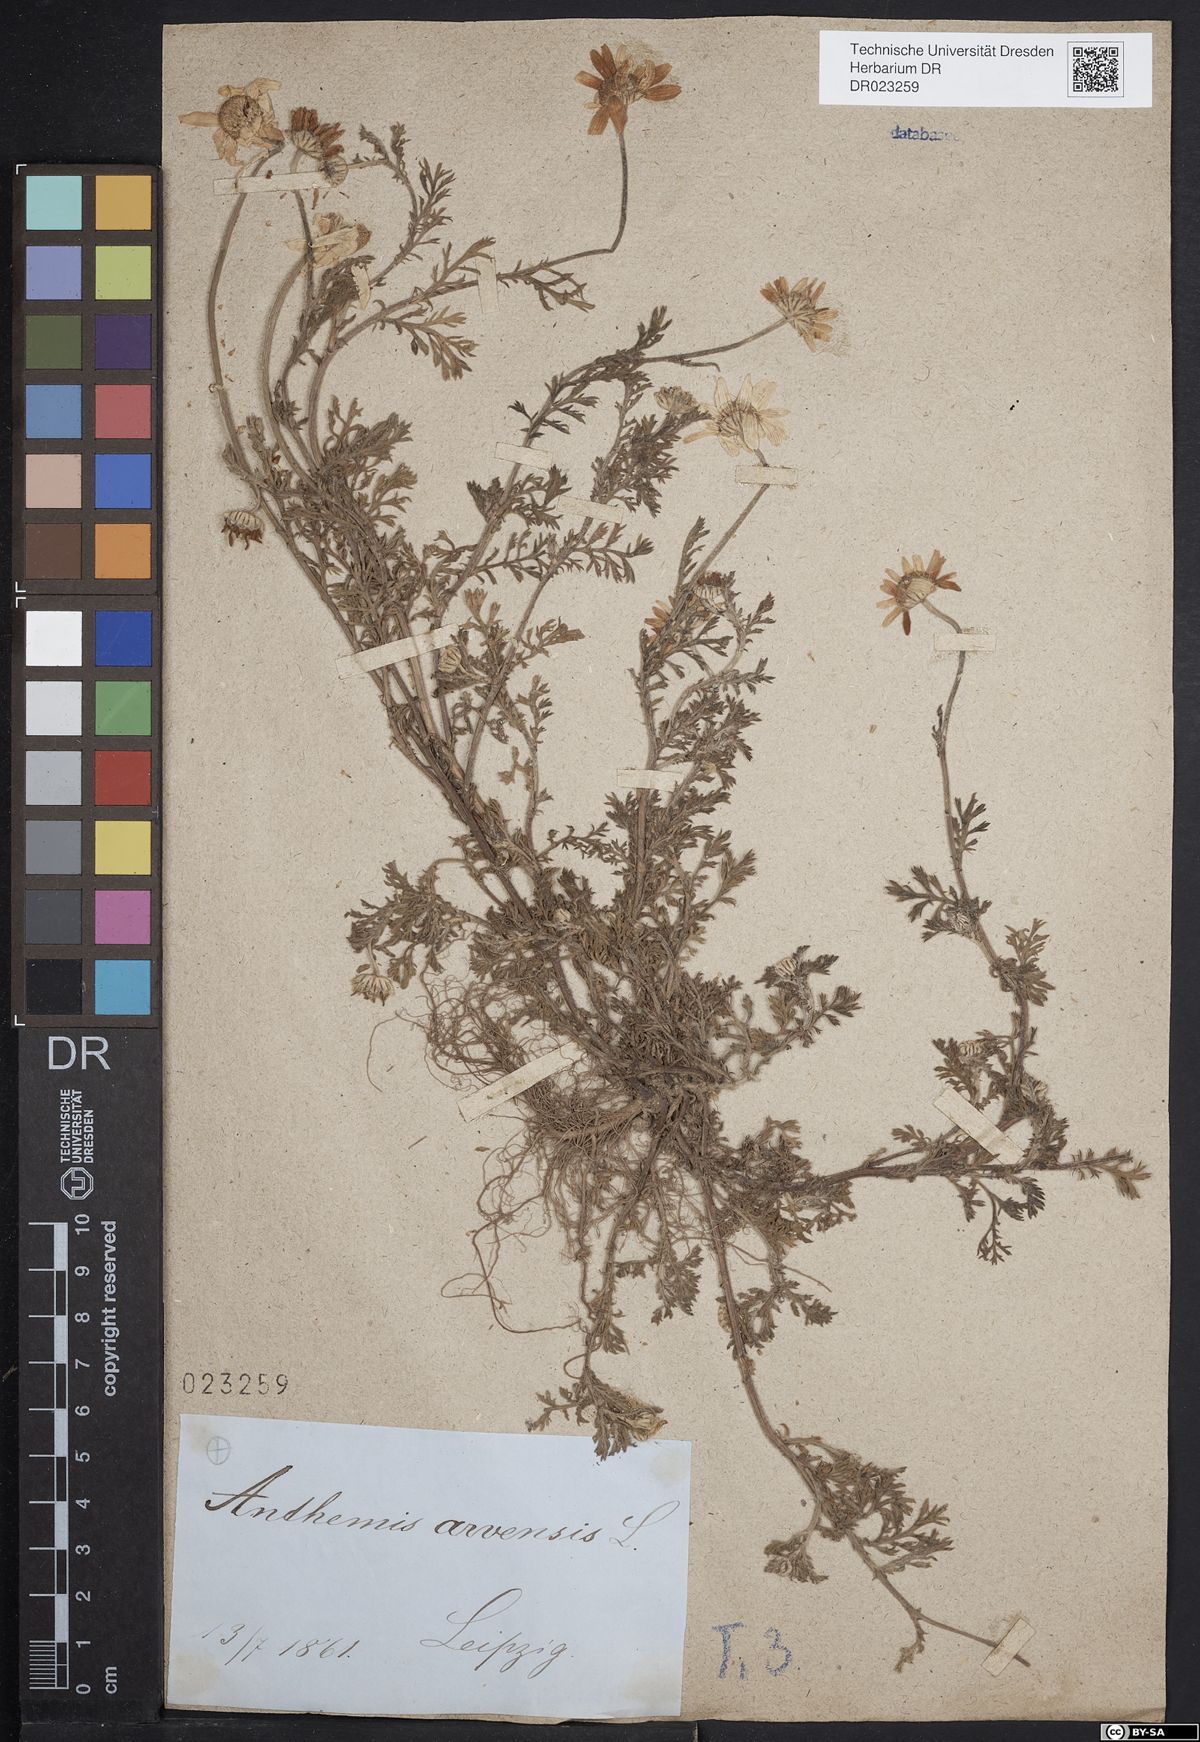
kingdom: Plantae
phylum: Tracheophyta
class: Magnoliopsida
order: Asterales
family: Asteraceae
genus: Anthemis
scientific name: Anthemis arvensis
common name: Corn chamomile
